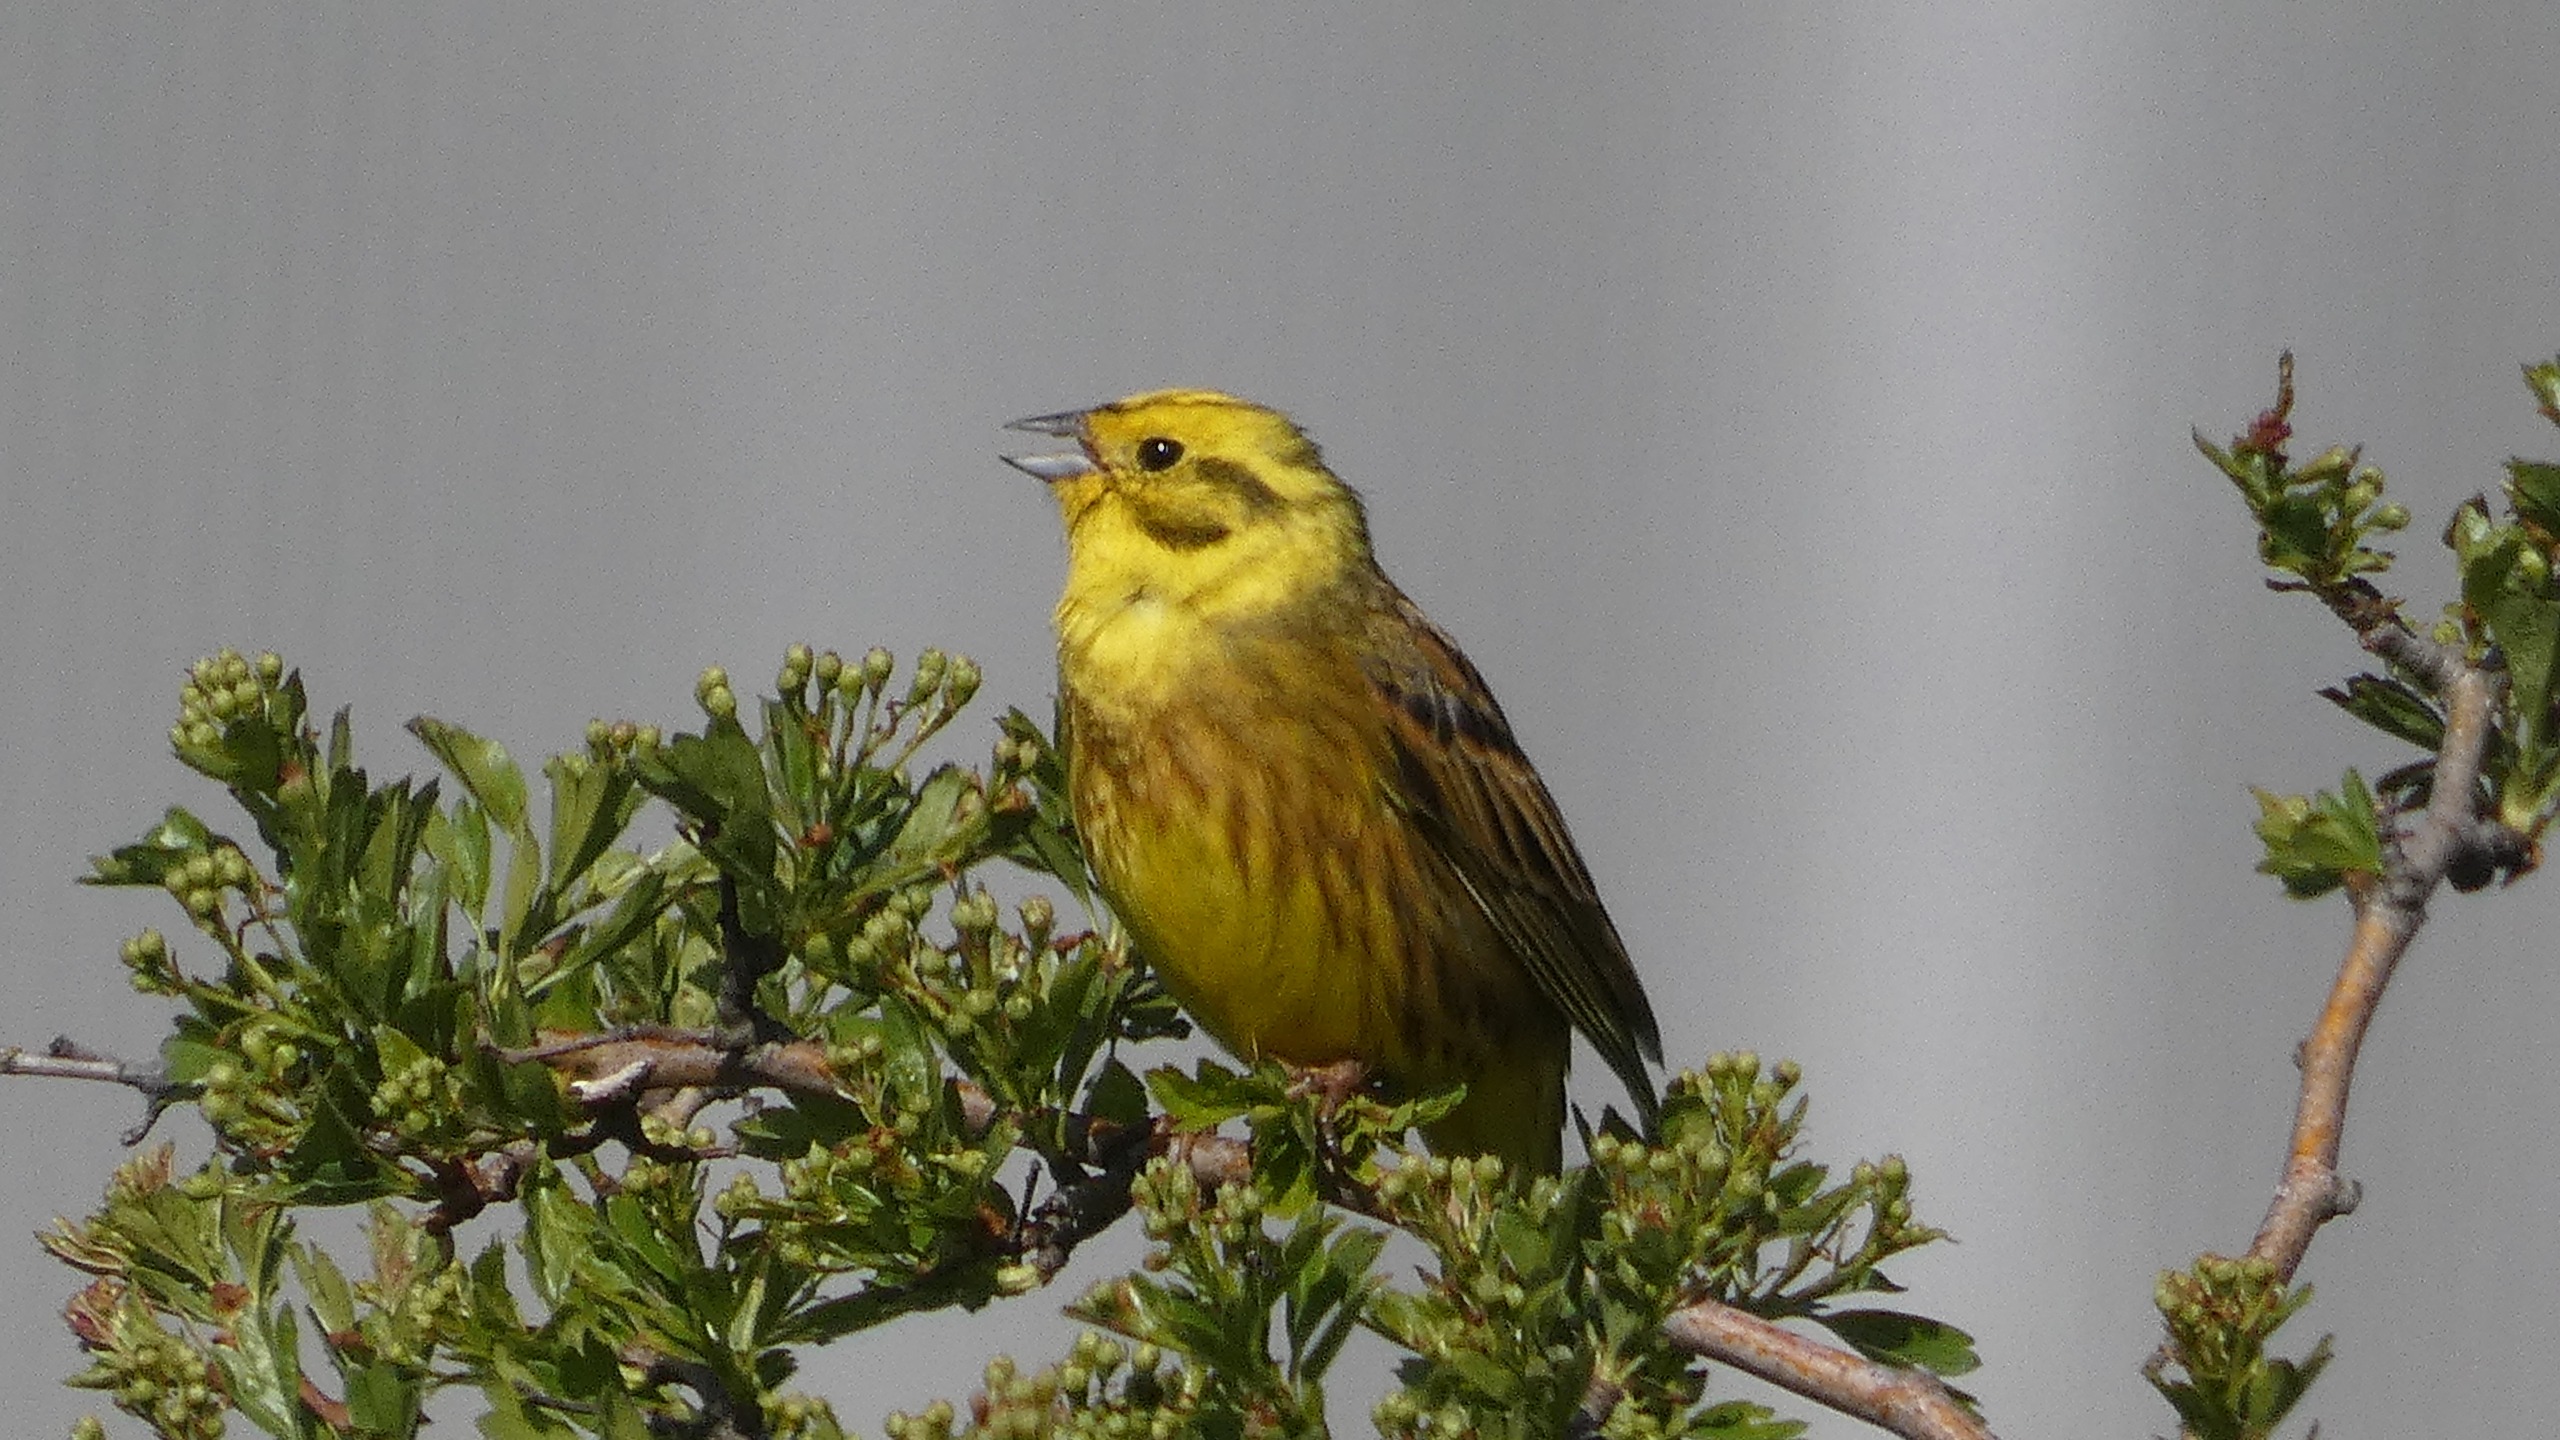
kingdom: Animalia
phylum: Chordata
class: Aves
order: Passeriformes
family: Emberizidae
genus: Emberiza
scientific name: Emberiza citrinella
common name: Gulspurv
